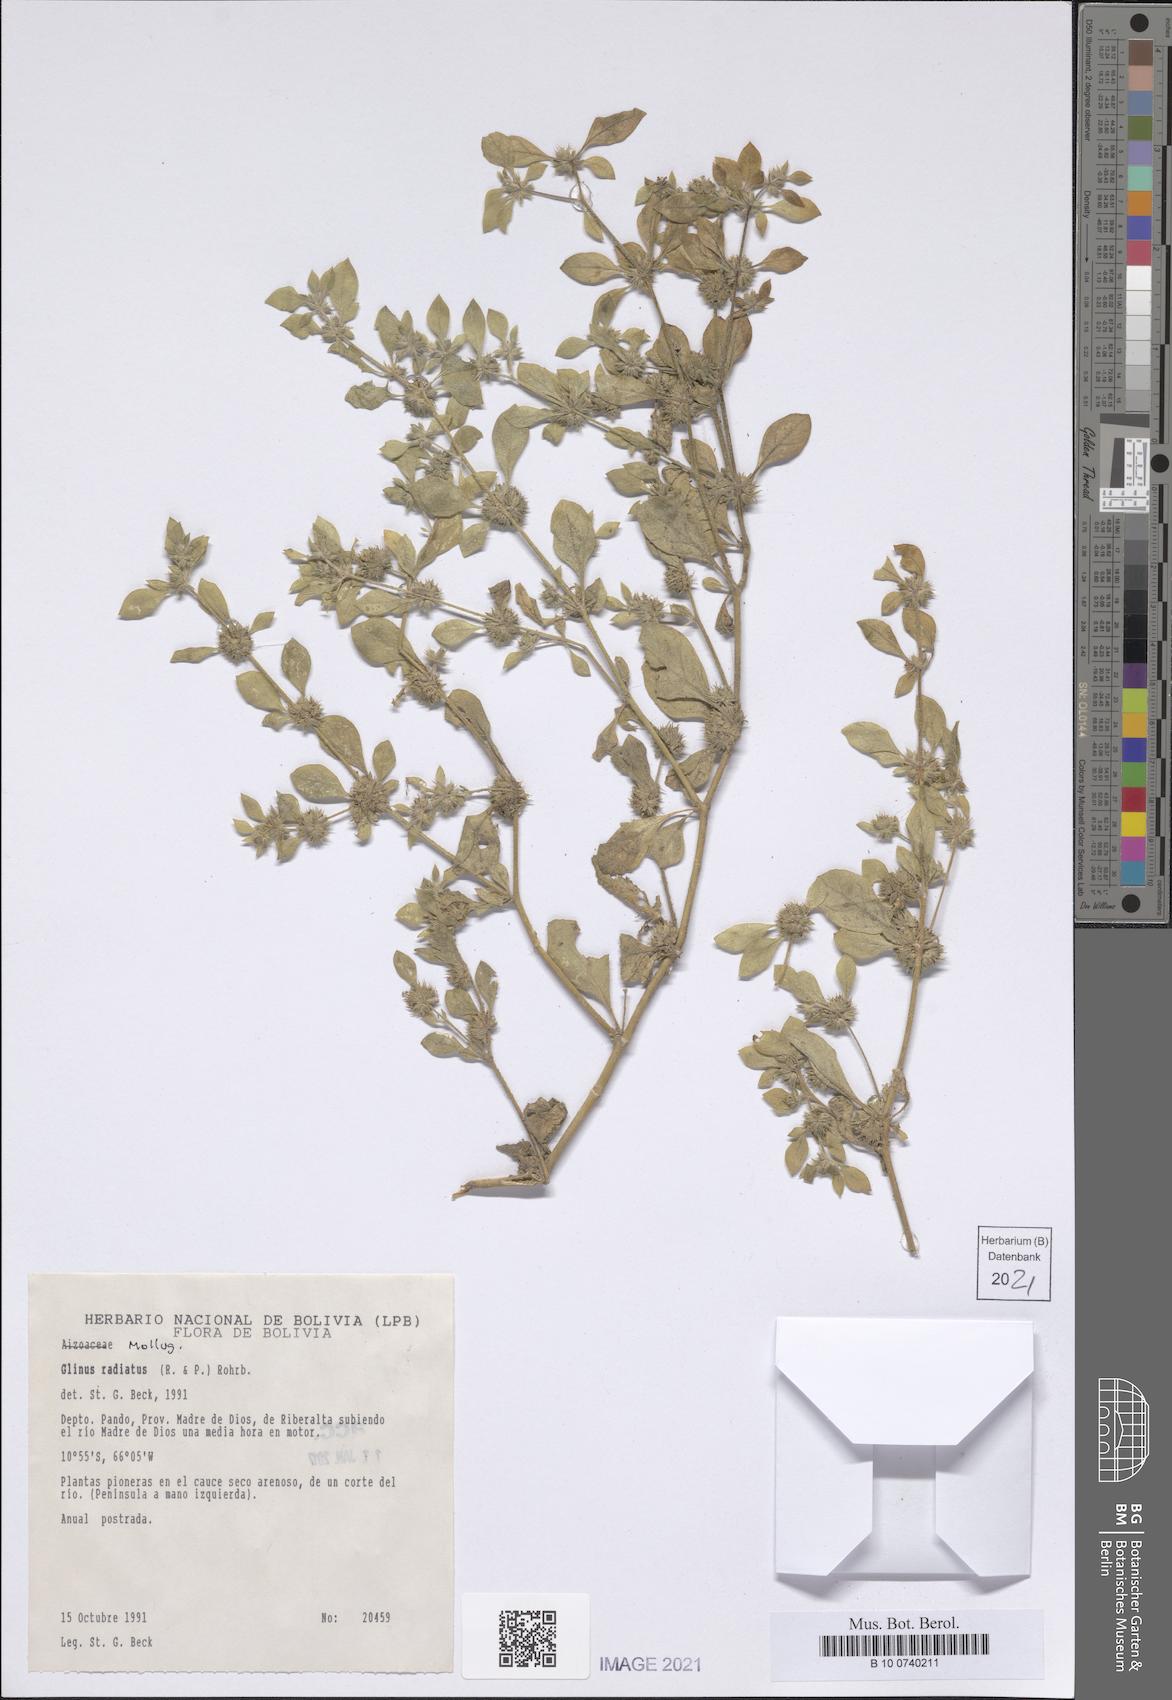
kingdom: Plantae
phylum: Tracheophyta
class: Magnoliopsida
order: Caryophyllales
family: Molluginaceae
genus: Glinus
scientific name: Glinus radiatus
